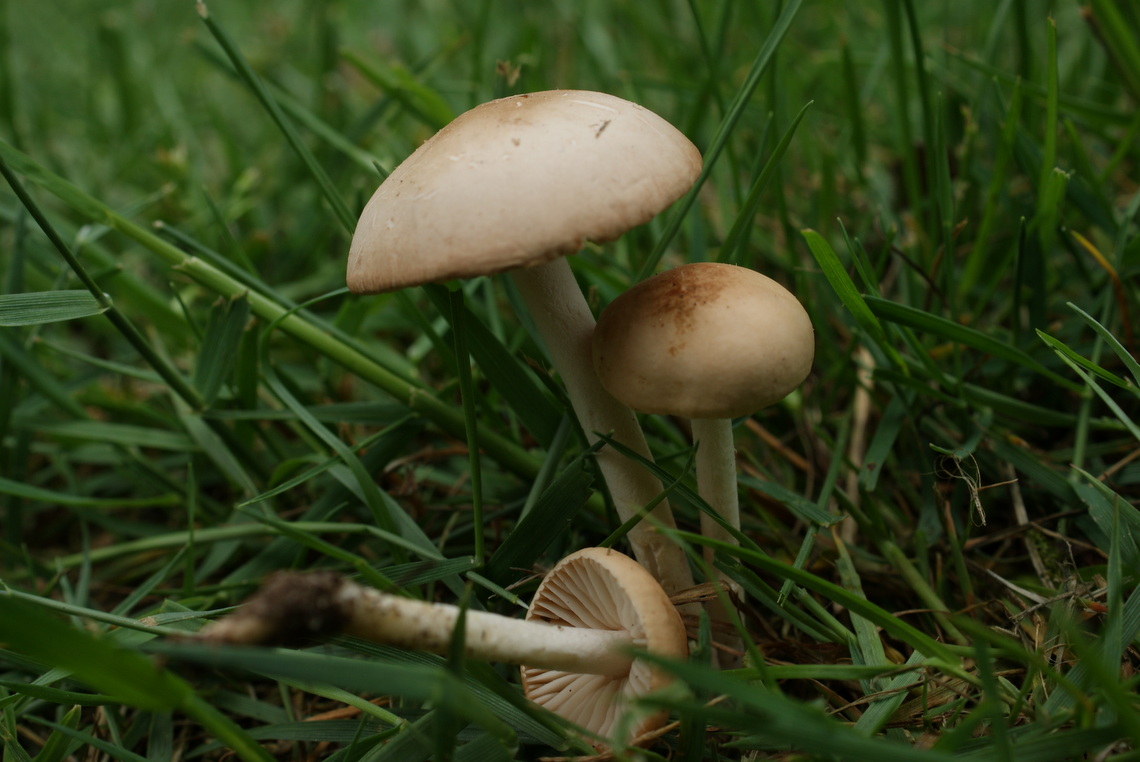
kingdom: Fungi
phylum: Basidiomycota
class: Agaricomycetes
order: Agaricales
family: Marasmiaceae
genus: Marasmius
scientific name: Marasmius oreades
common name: elledans-bruskhat
